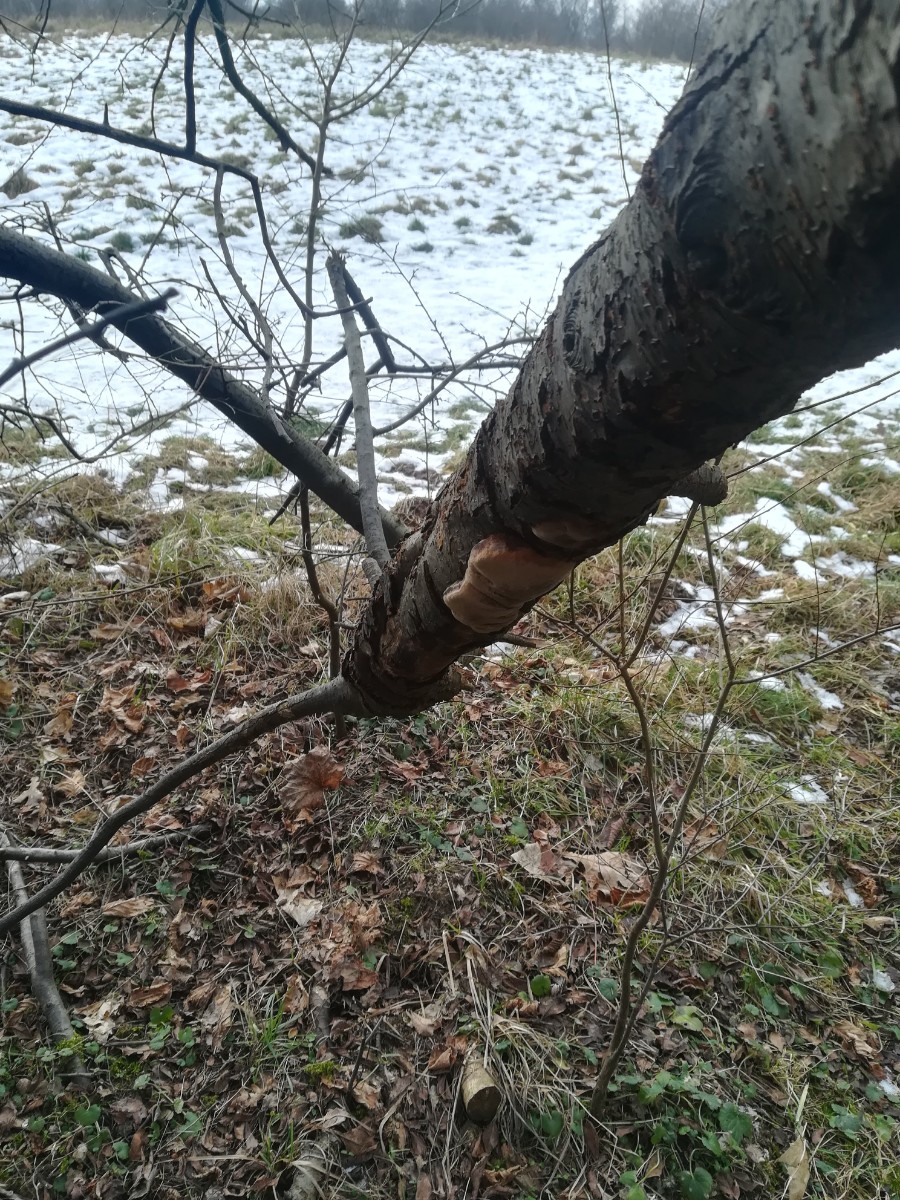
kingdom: Fungi
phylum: Basidiomycota
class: Agaricomycetes
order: Hymenochaetales
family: Hymenochaetaceae
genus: Phellinus
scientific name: Phellinus pomaceus
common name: blomme-ildporesvamp
